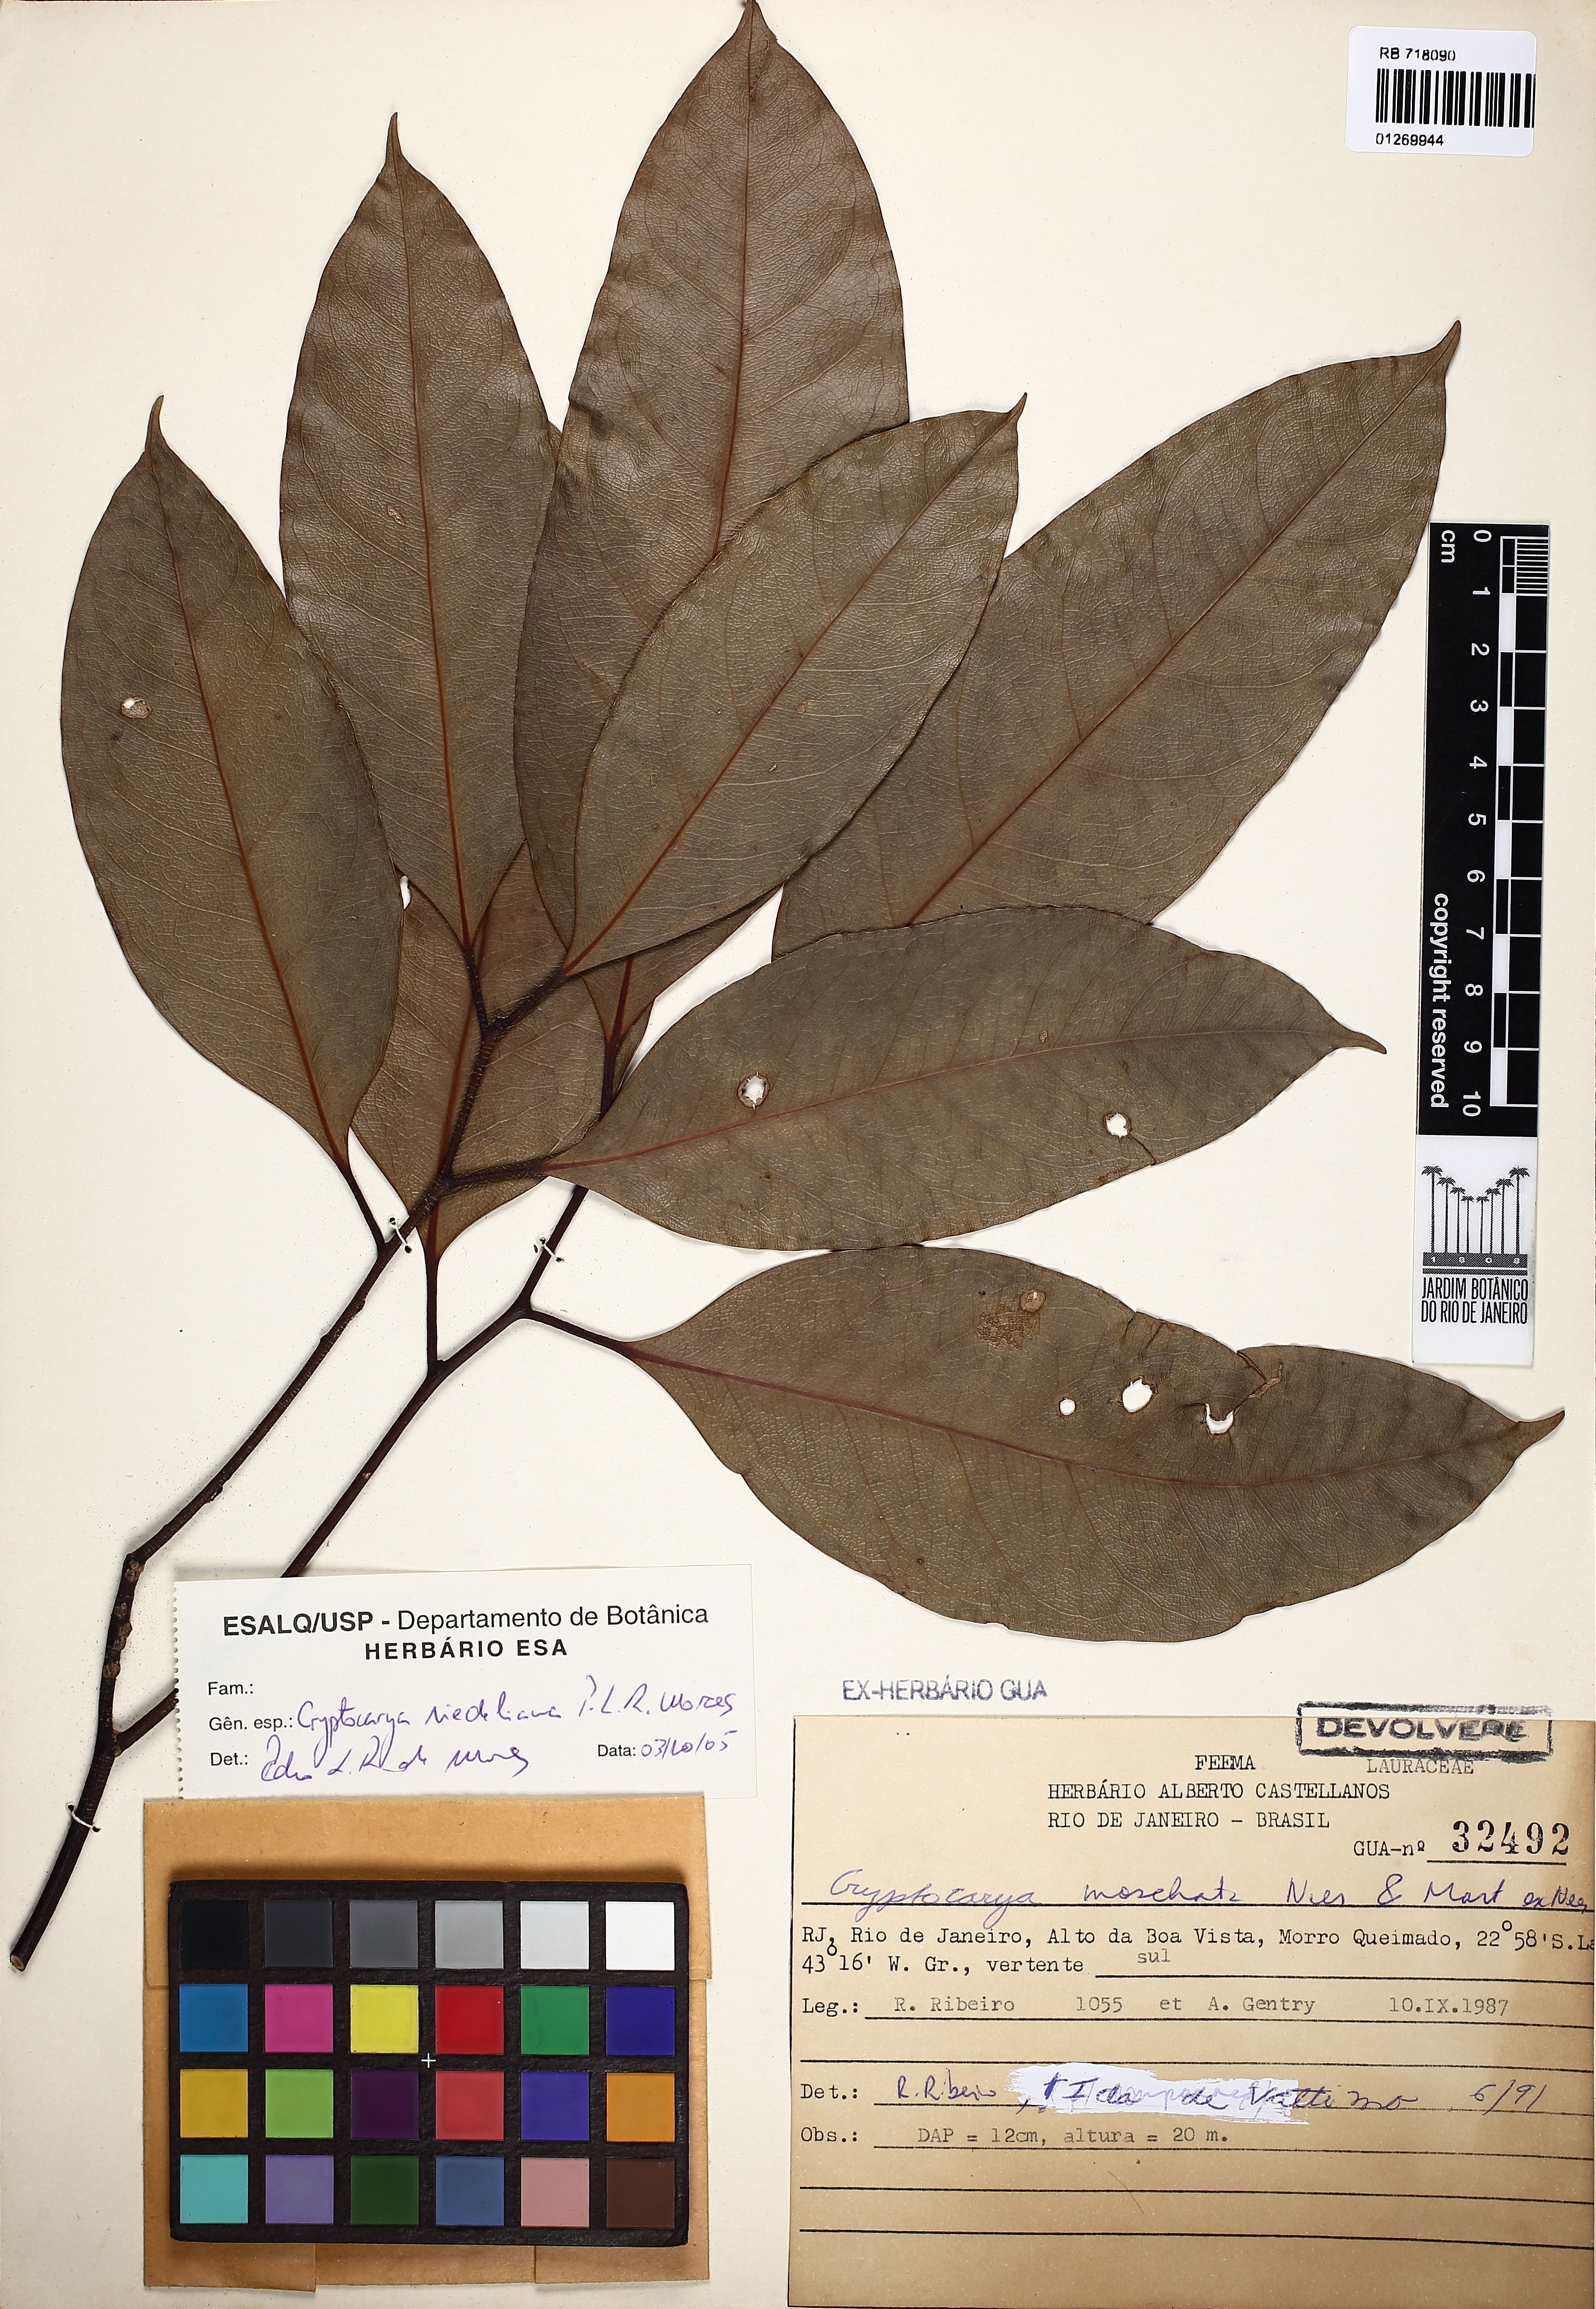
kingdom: Plantae
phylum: Tracheophyta
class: Magnoliopsida
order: Laurales
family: Lauraceae
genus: Cryptocarya
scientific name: Cryptocarya riedeliana
